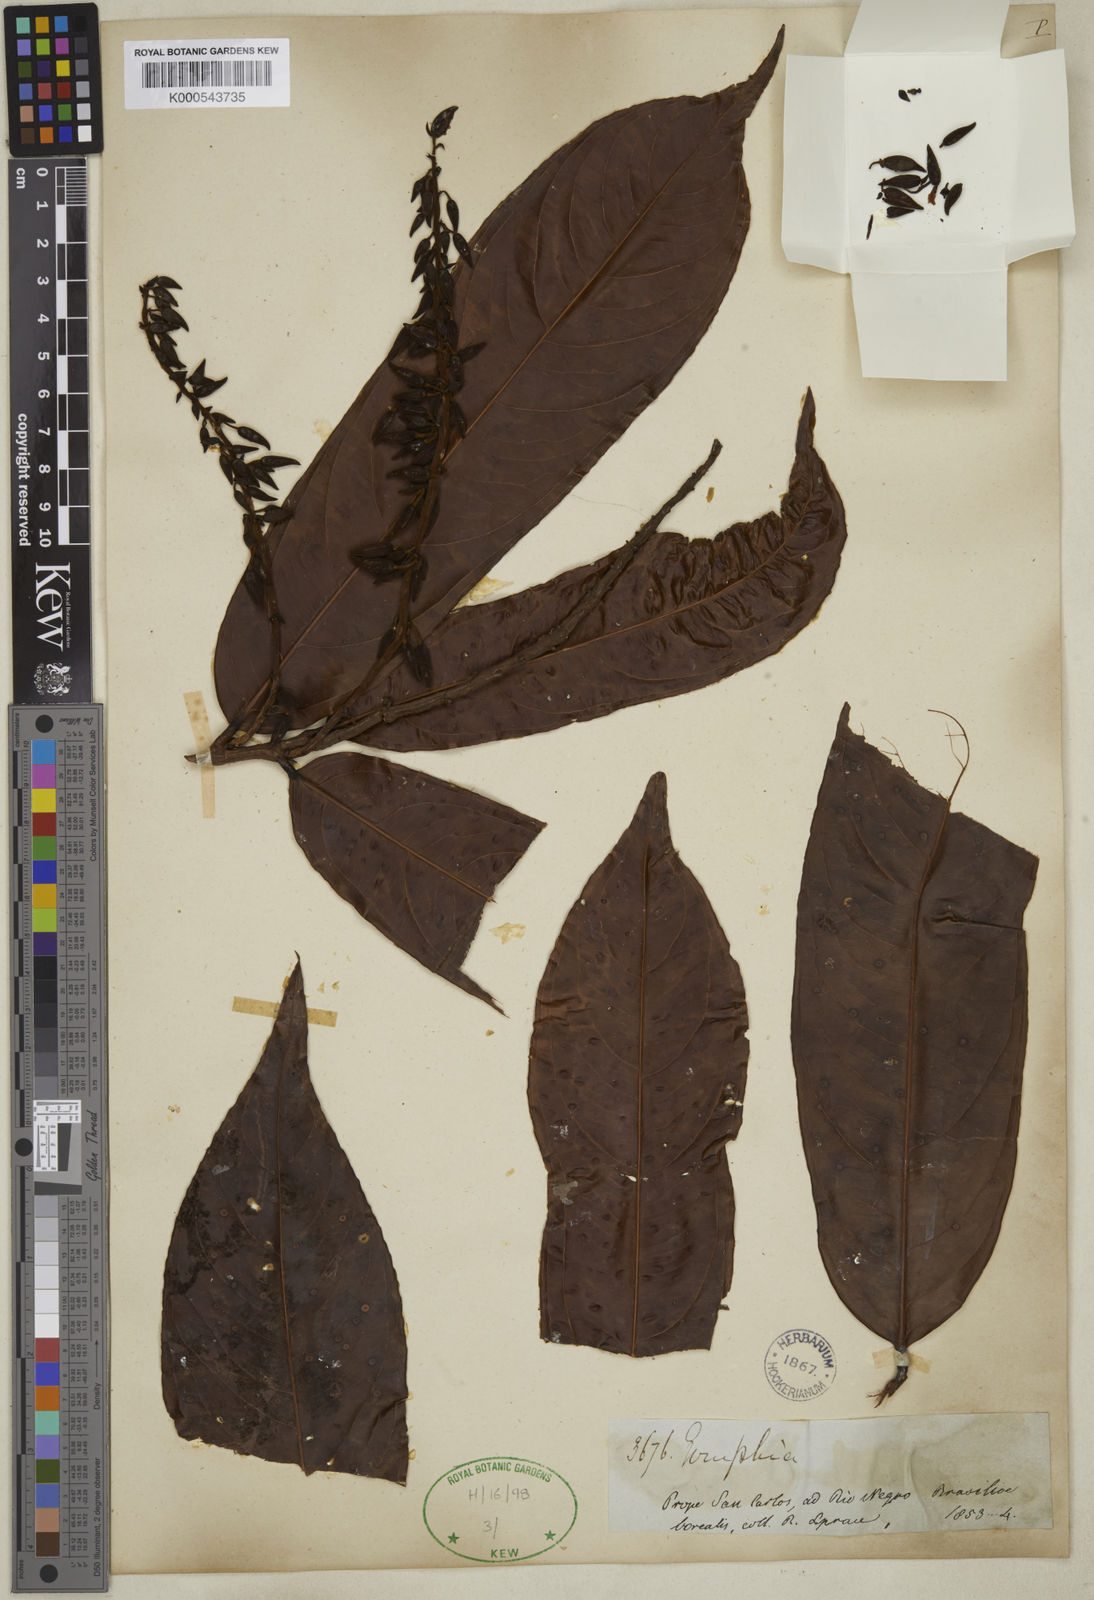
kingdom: Plantae
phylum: Tracheophyta
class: Magnoliopsida
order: Malpighiales
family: Ochnaceae
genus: Ouratea
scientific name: Ouratea ferruginea
